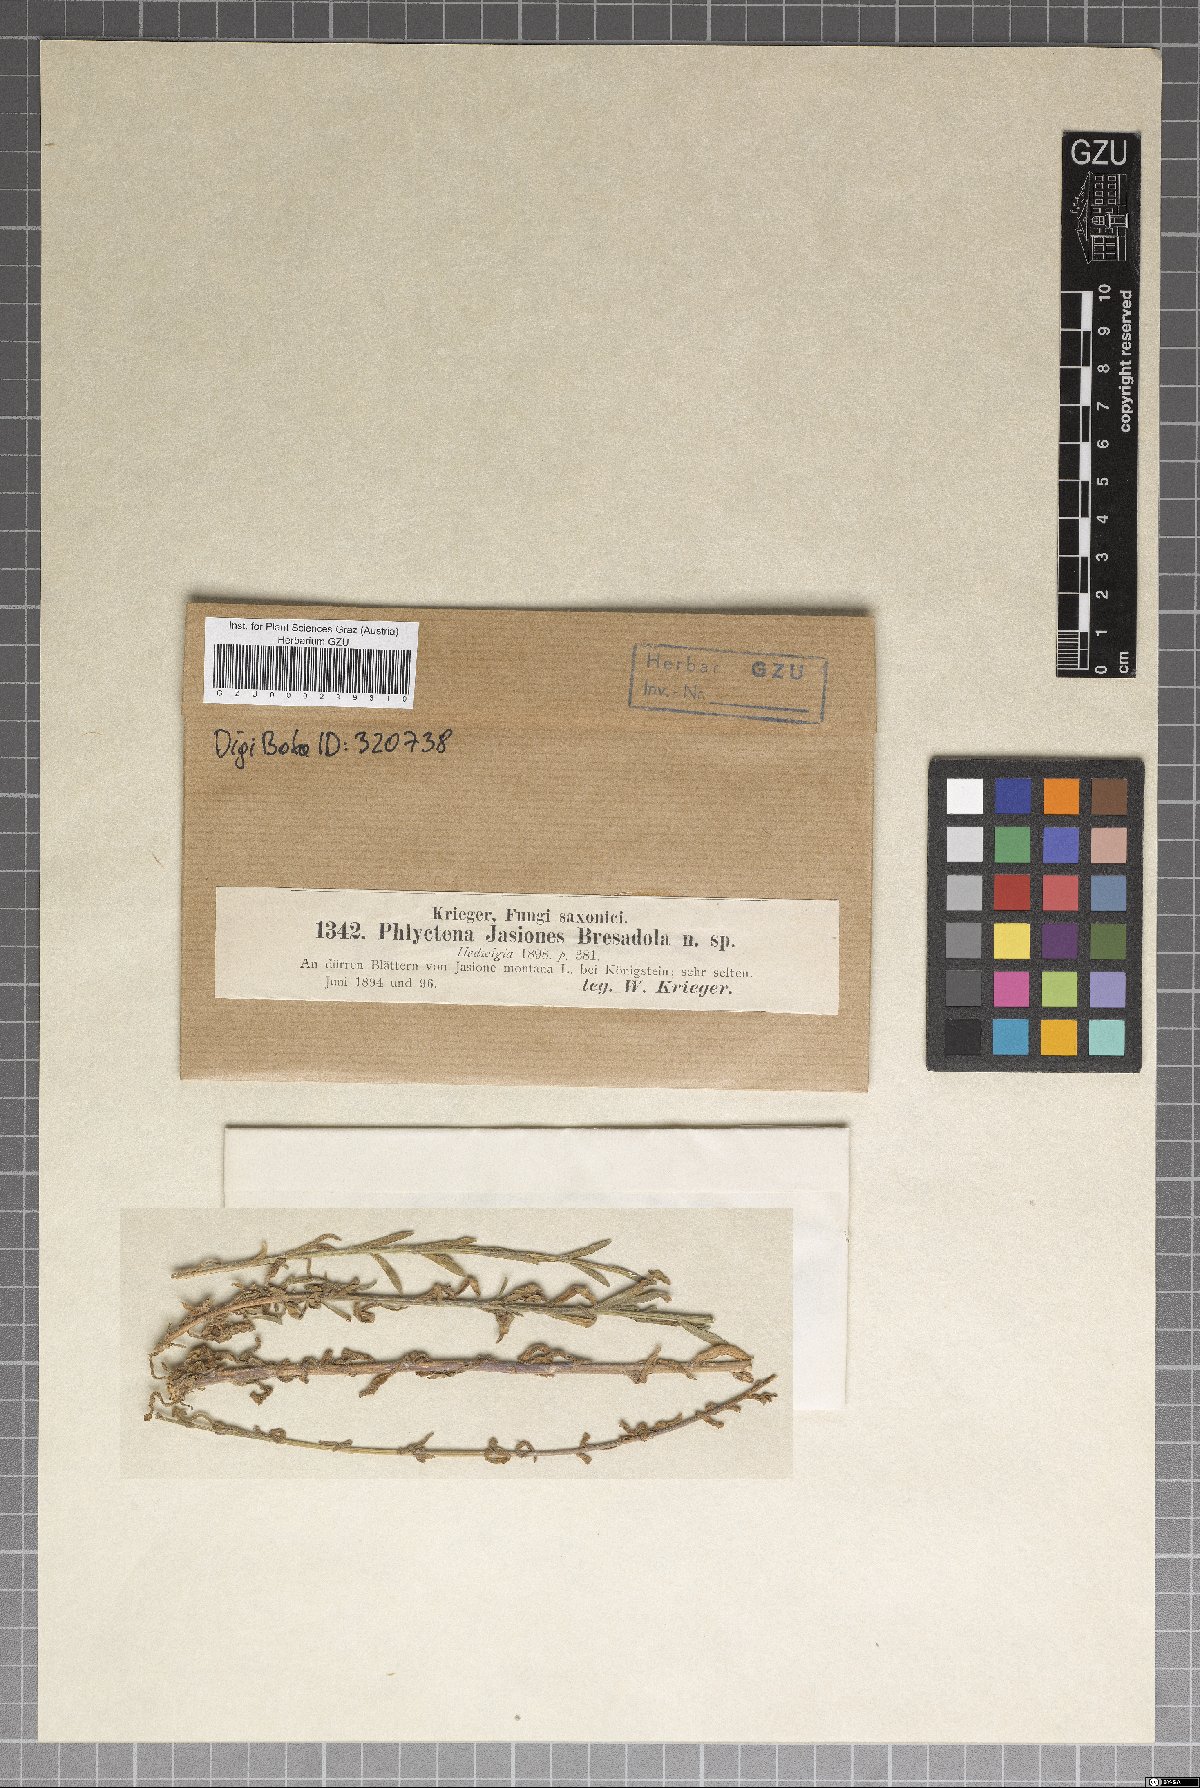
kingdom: Fungi
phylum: Ascomycota
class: Dothideomycetes
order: Capnodiales
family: Mycosphaerellaceae
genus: Septoria
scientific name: Septoria jasiones
